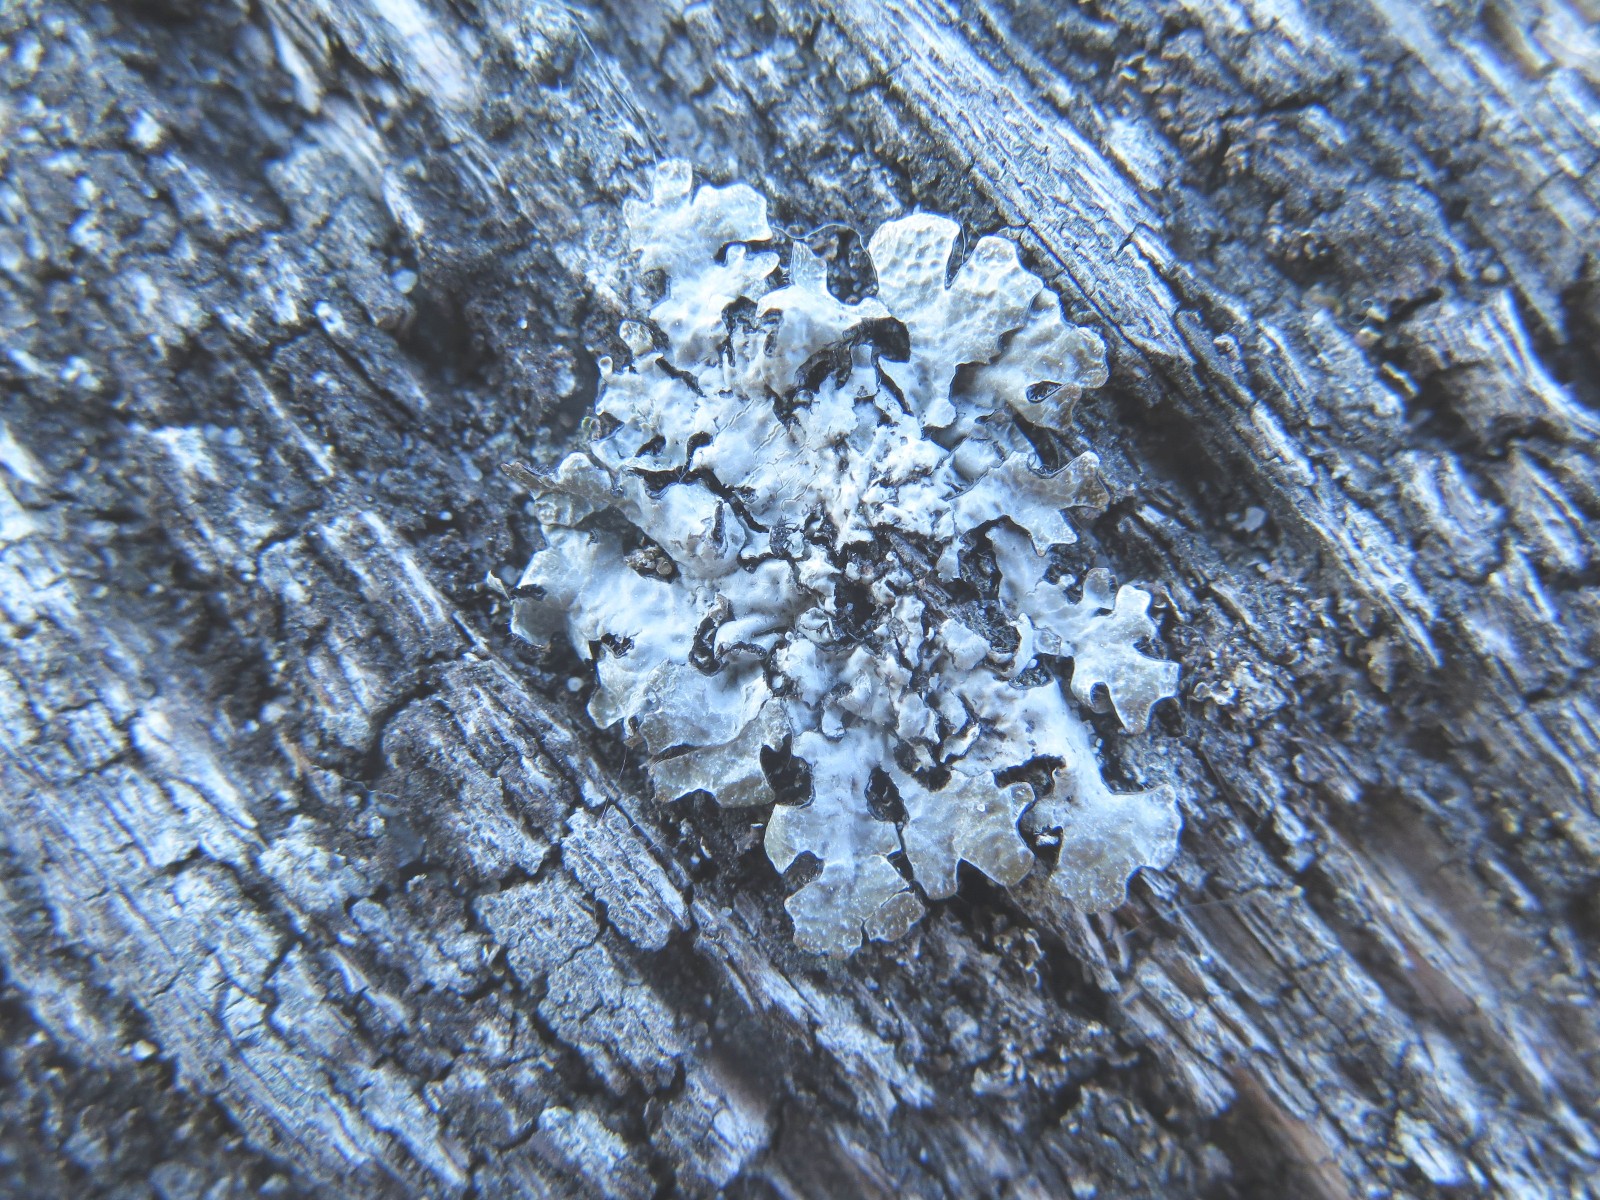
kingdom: Fungi
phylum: Ascomycota
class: Lecanoromycetes
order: Lecanorales
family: Parmeliaceae
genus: Parmelia
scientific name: Parmelia sulcata
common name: rynket skållav
